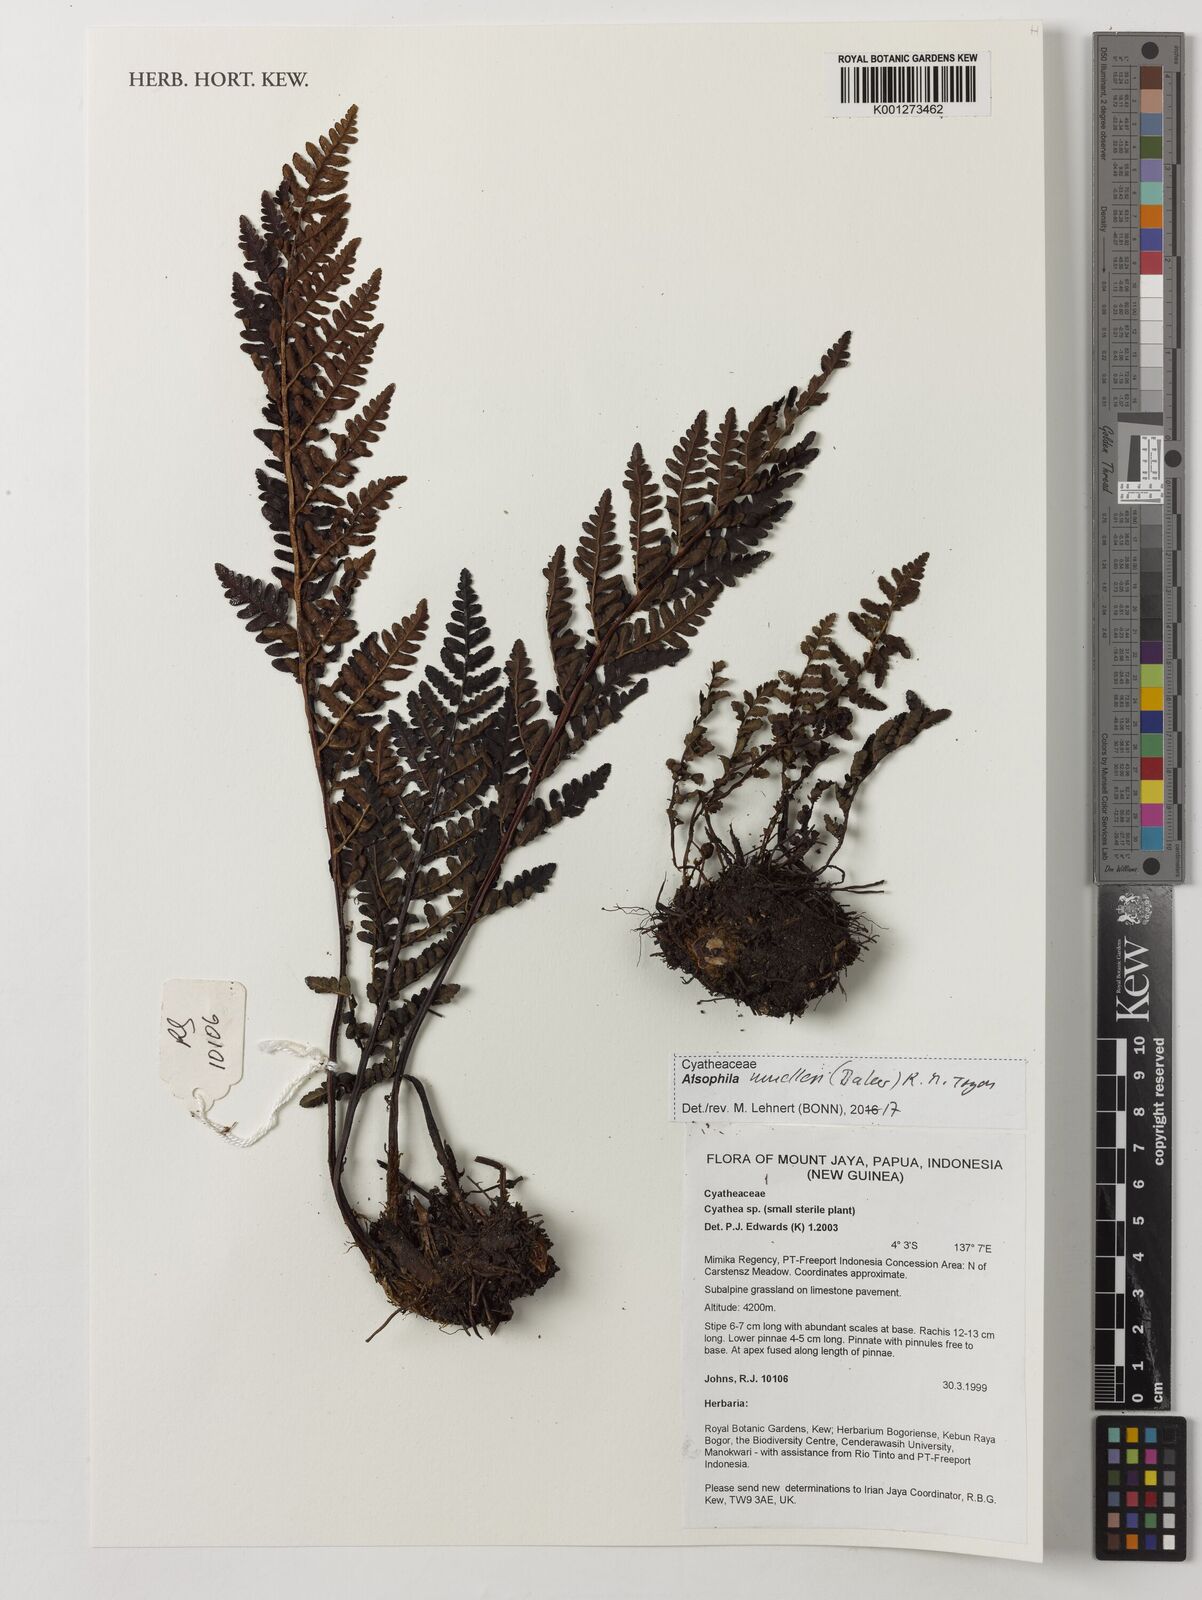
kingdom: Plantae
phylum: Tracheophyta
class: Polypodiopsida
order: Cyatheales
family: Cyatheaceae
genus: Alsophila
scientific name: Alsophila muelleri
